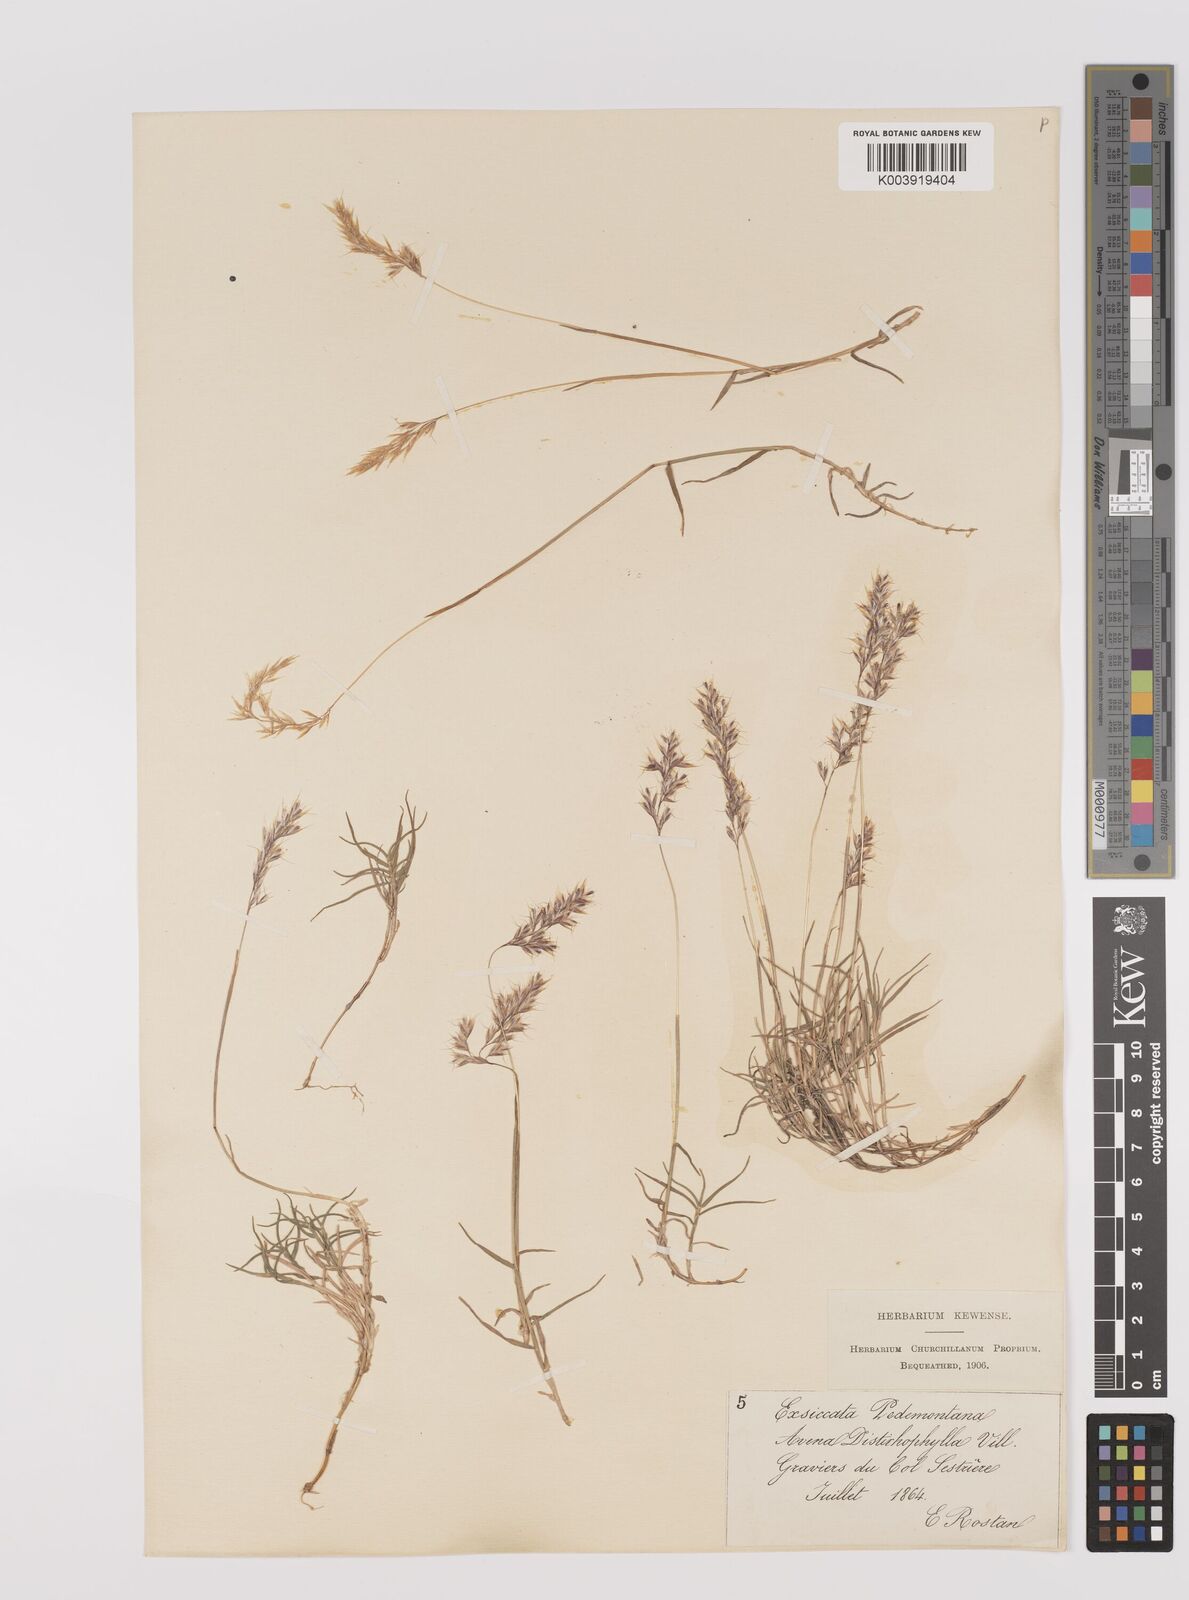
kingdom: Plantae
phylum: Tracheophyta
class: Liliopsida
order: Poales
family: Poaceae
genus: Acrospelion
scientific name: Acrospelion distichophyllum
